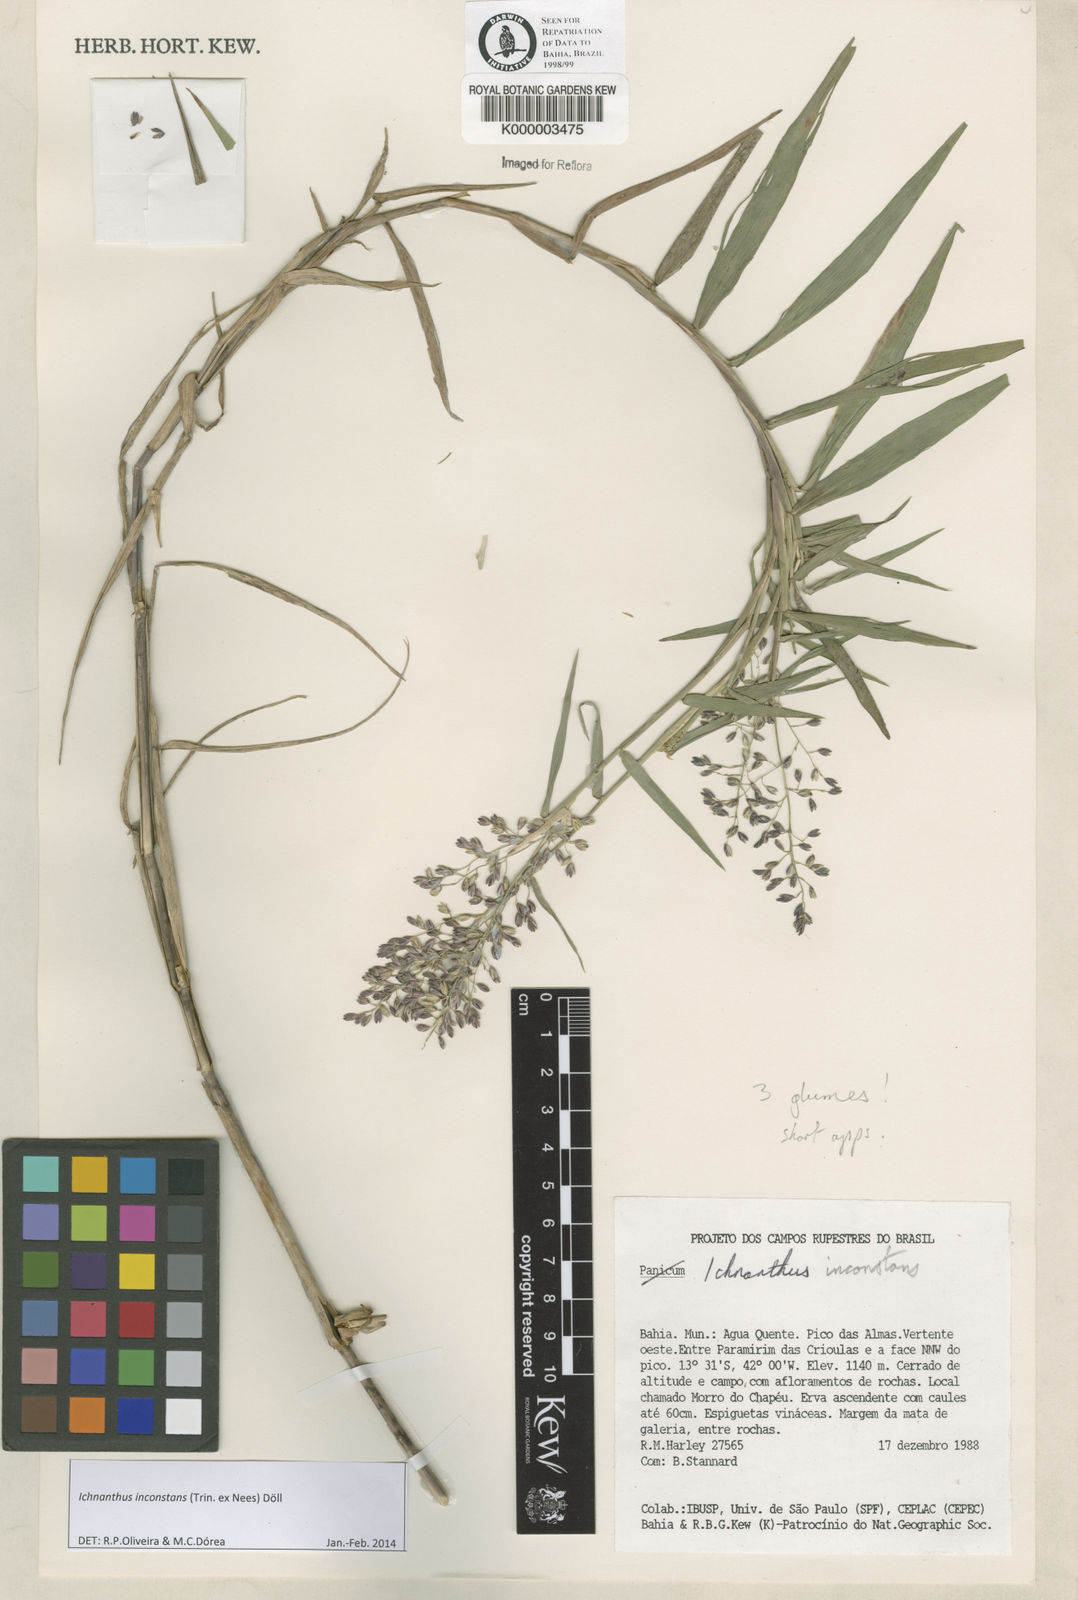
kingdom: Plantae
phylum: Tracheophyta
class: Liliopsida
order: Poales
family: Poaceae
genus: Ichnanthus
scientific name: Ichnanthus
